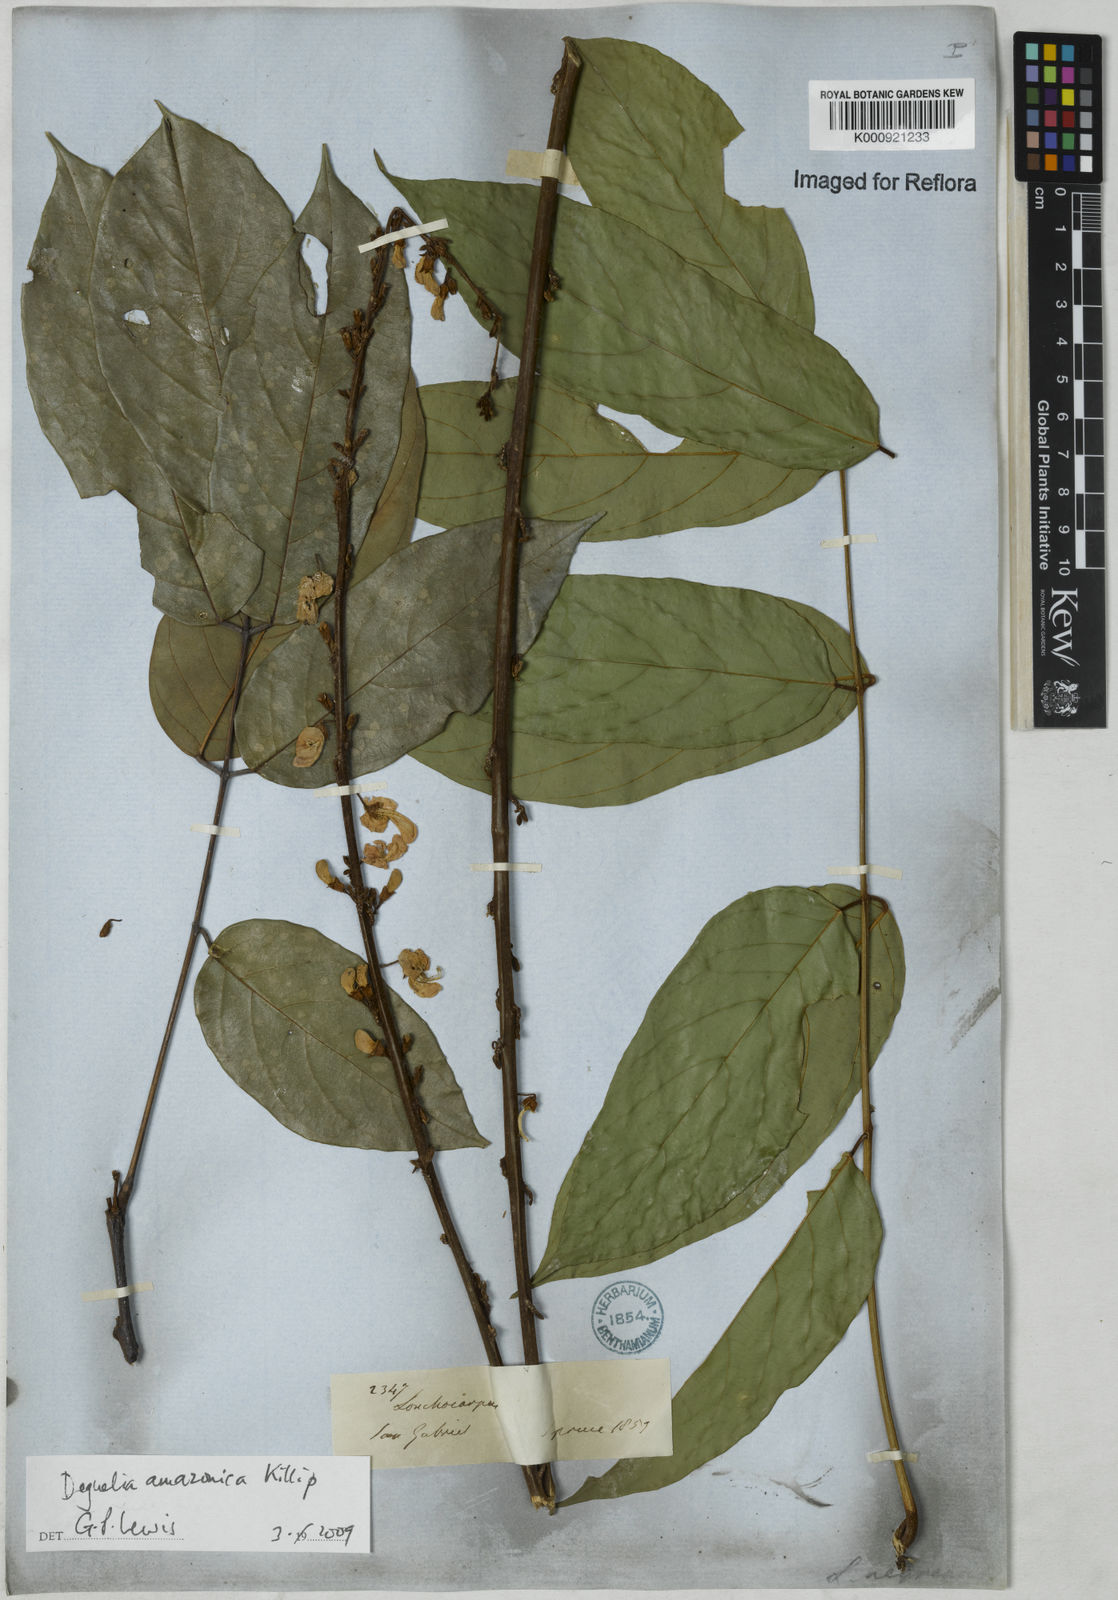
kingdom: Plantae
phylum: Tracheophyta
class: Magnoliopsida
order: Fabales
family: Fabaceae
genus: Deguelia
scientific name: Deguelia amazonica
